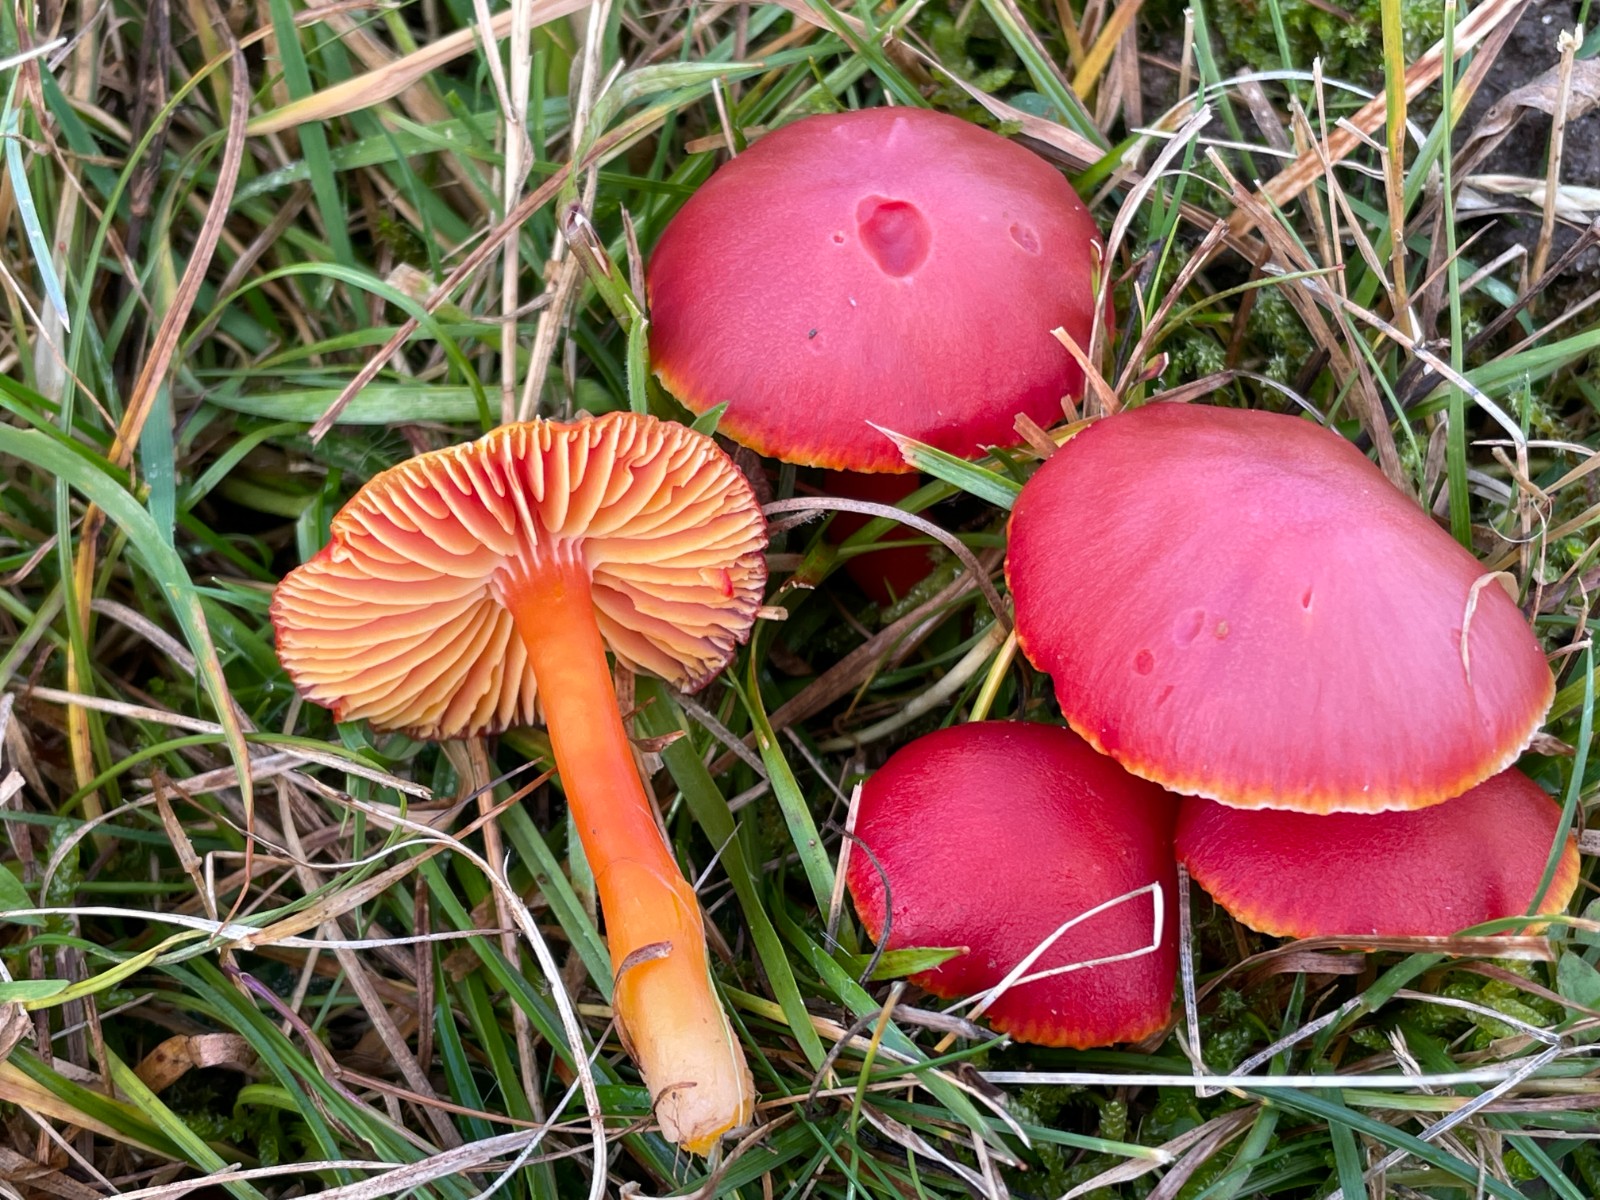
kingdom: Fungi
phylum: Basidiomycota
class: Agaricomycetes
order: Agaricales
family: Hygrophoraceae
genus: Hygrocybe
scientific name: Hygrocybe coccinea
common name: cinnober-vokshat
